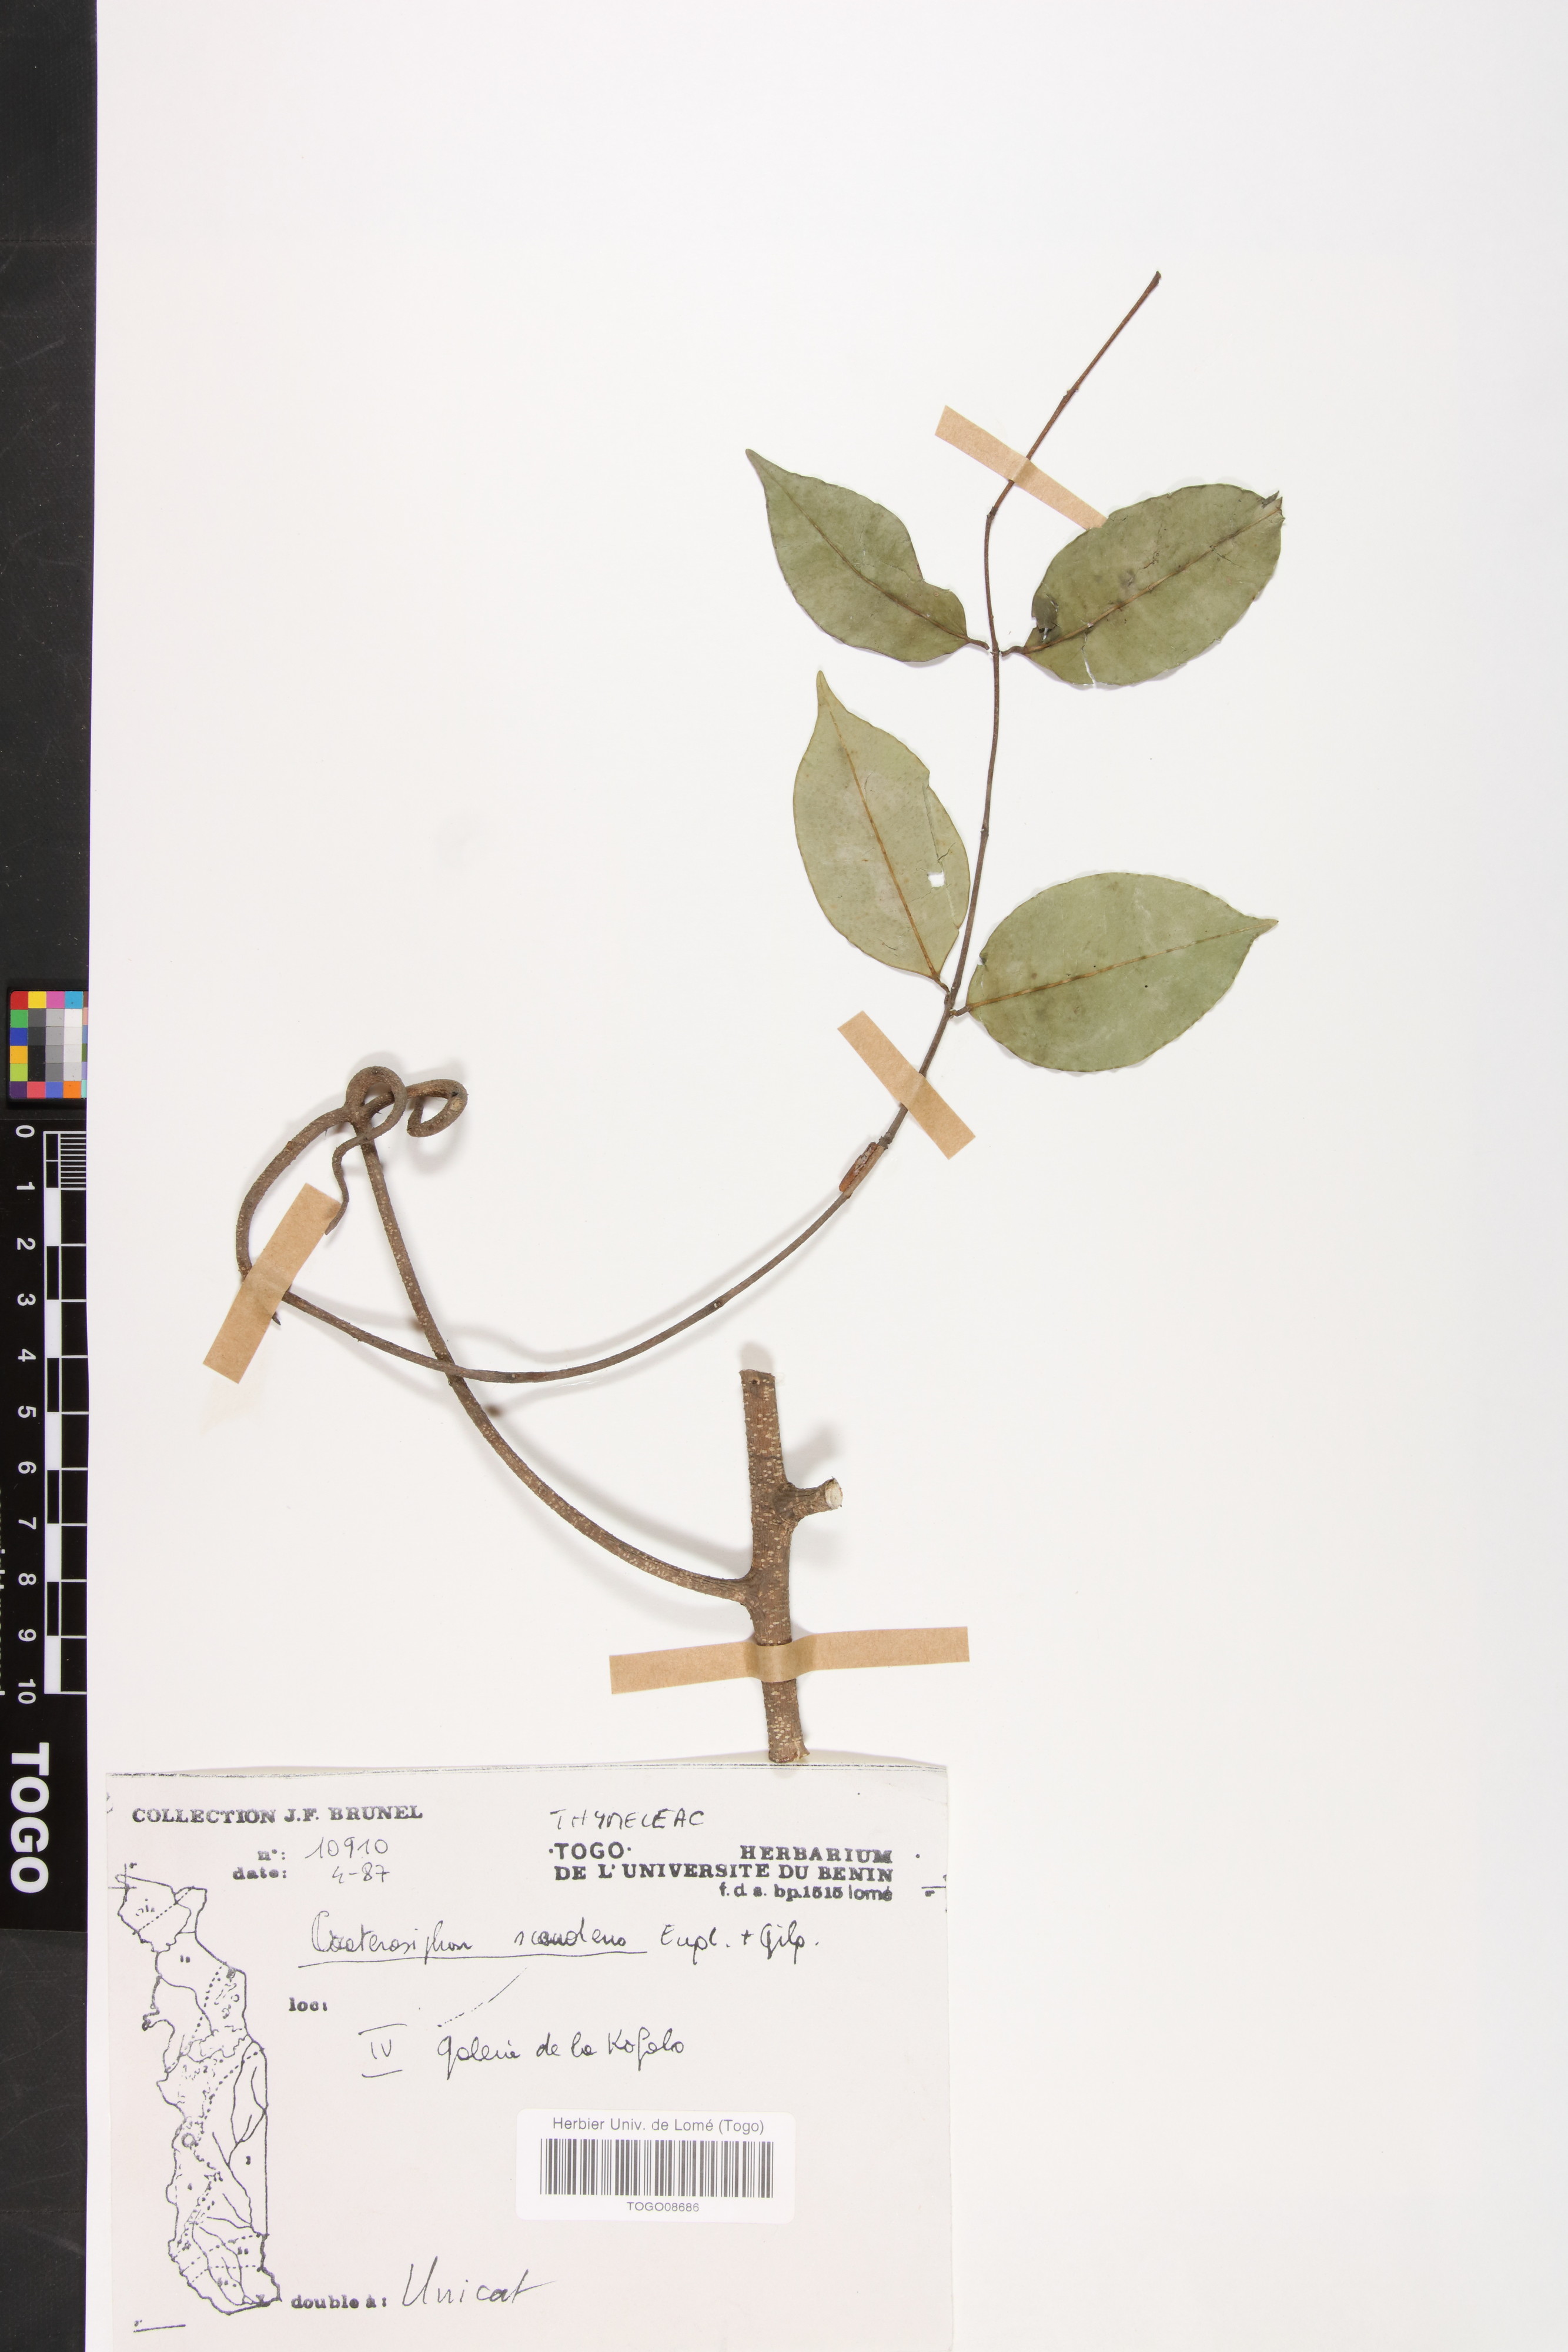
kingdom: Plantae
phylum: Tracheophyta
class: Magnoliopsida
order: Malvales
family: Thymelaeaceae
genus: Craterosiphon
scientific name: Craterosiphon scandens
